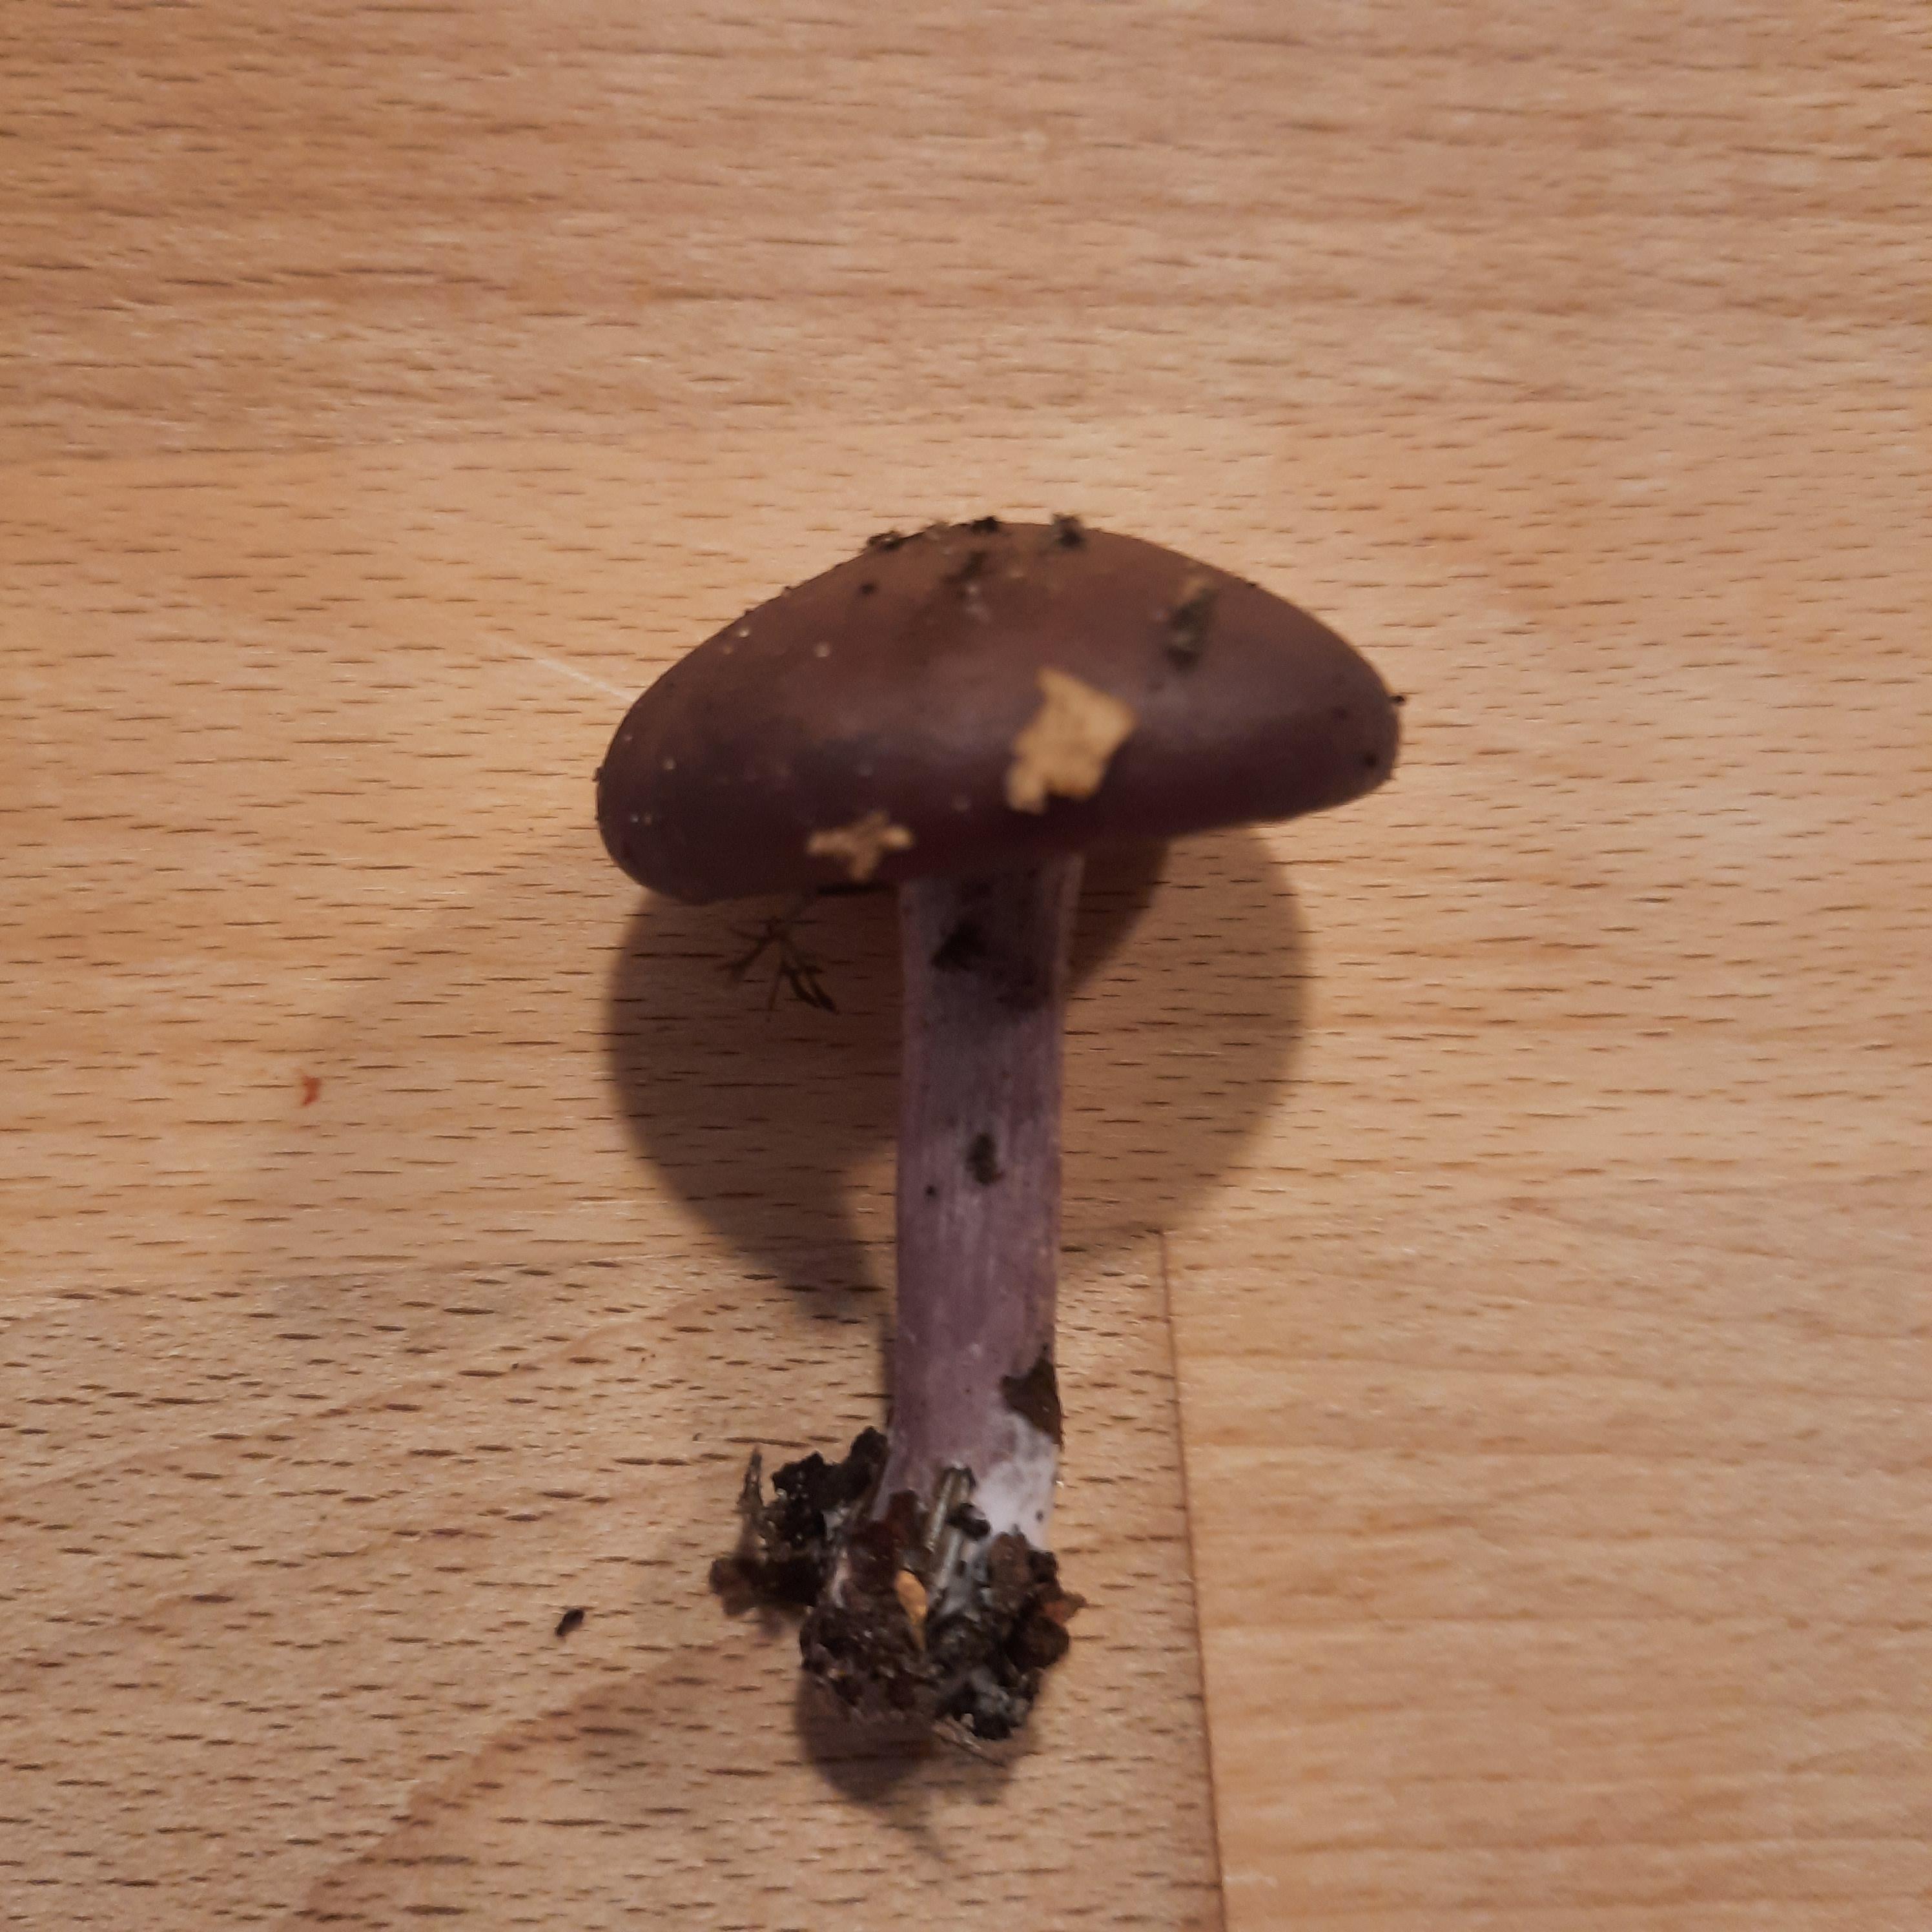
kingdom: Fungi
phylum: Basidiomycota
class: Agaricomycetes
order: Agaricales
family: Tricholomataceae
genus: Lepista
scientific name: Lepista lilacea
